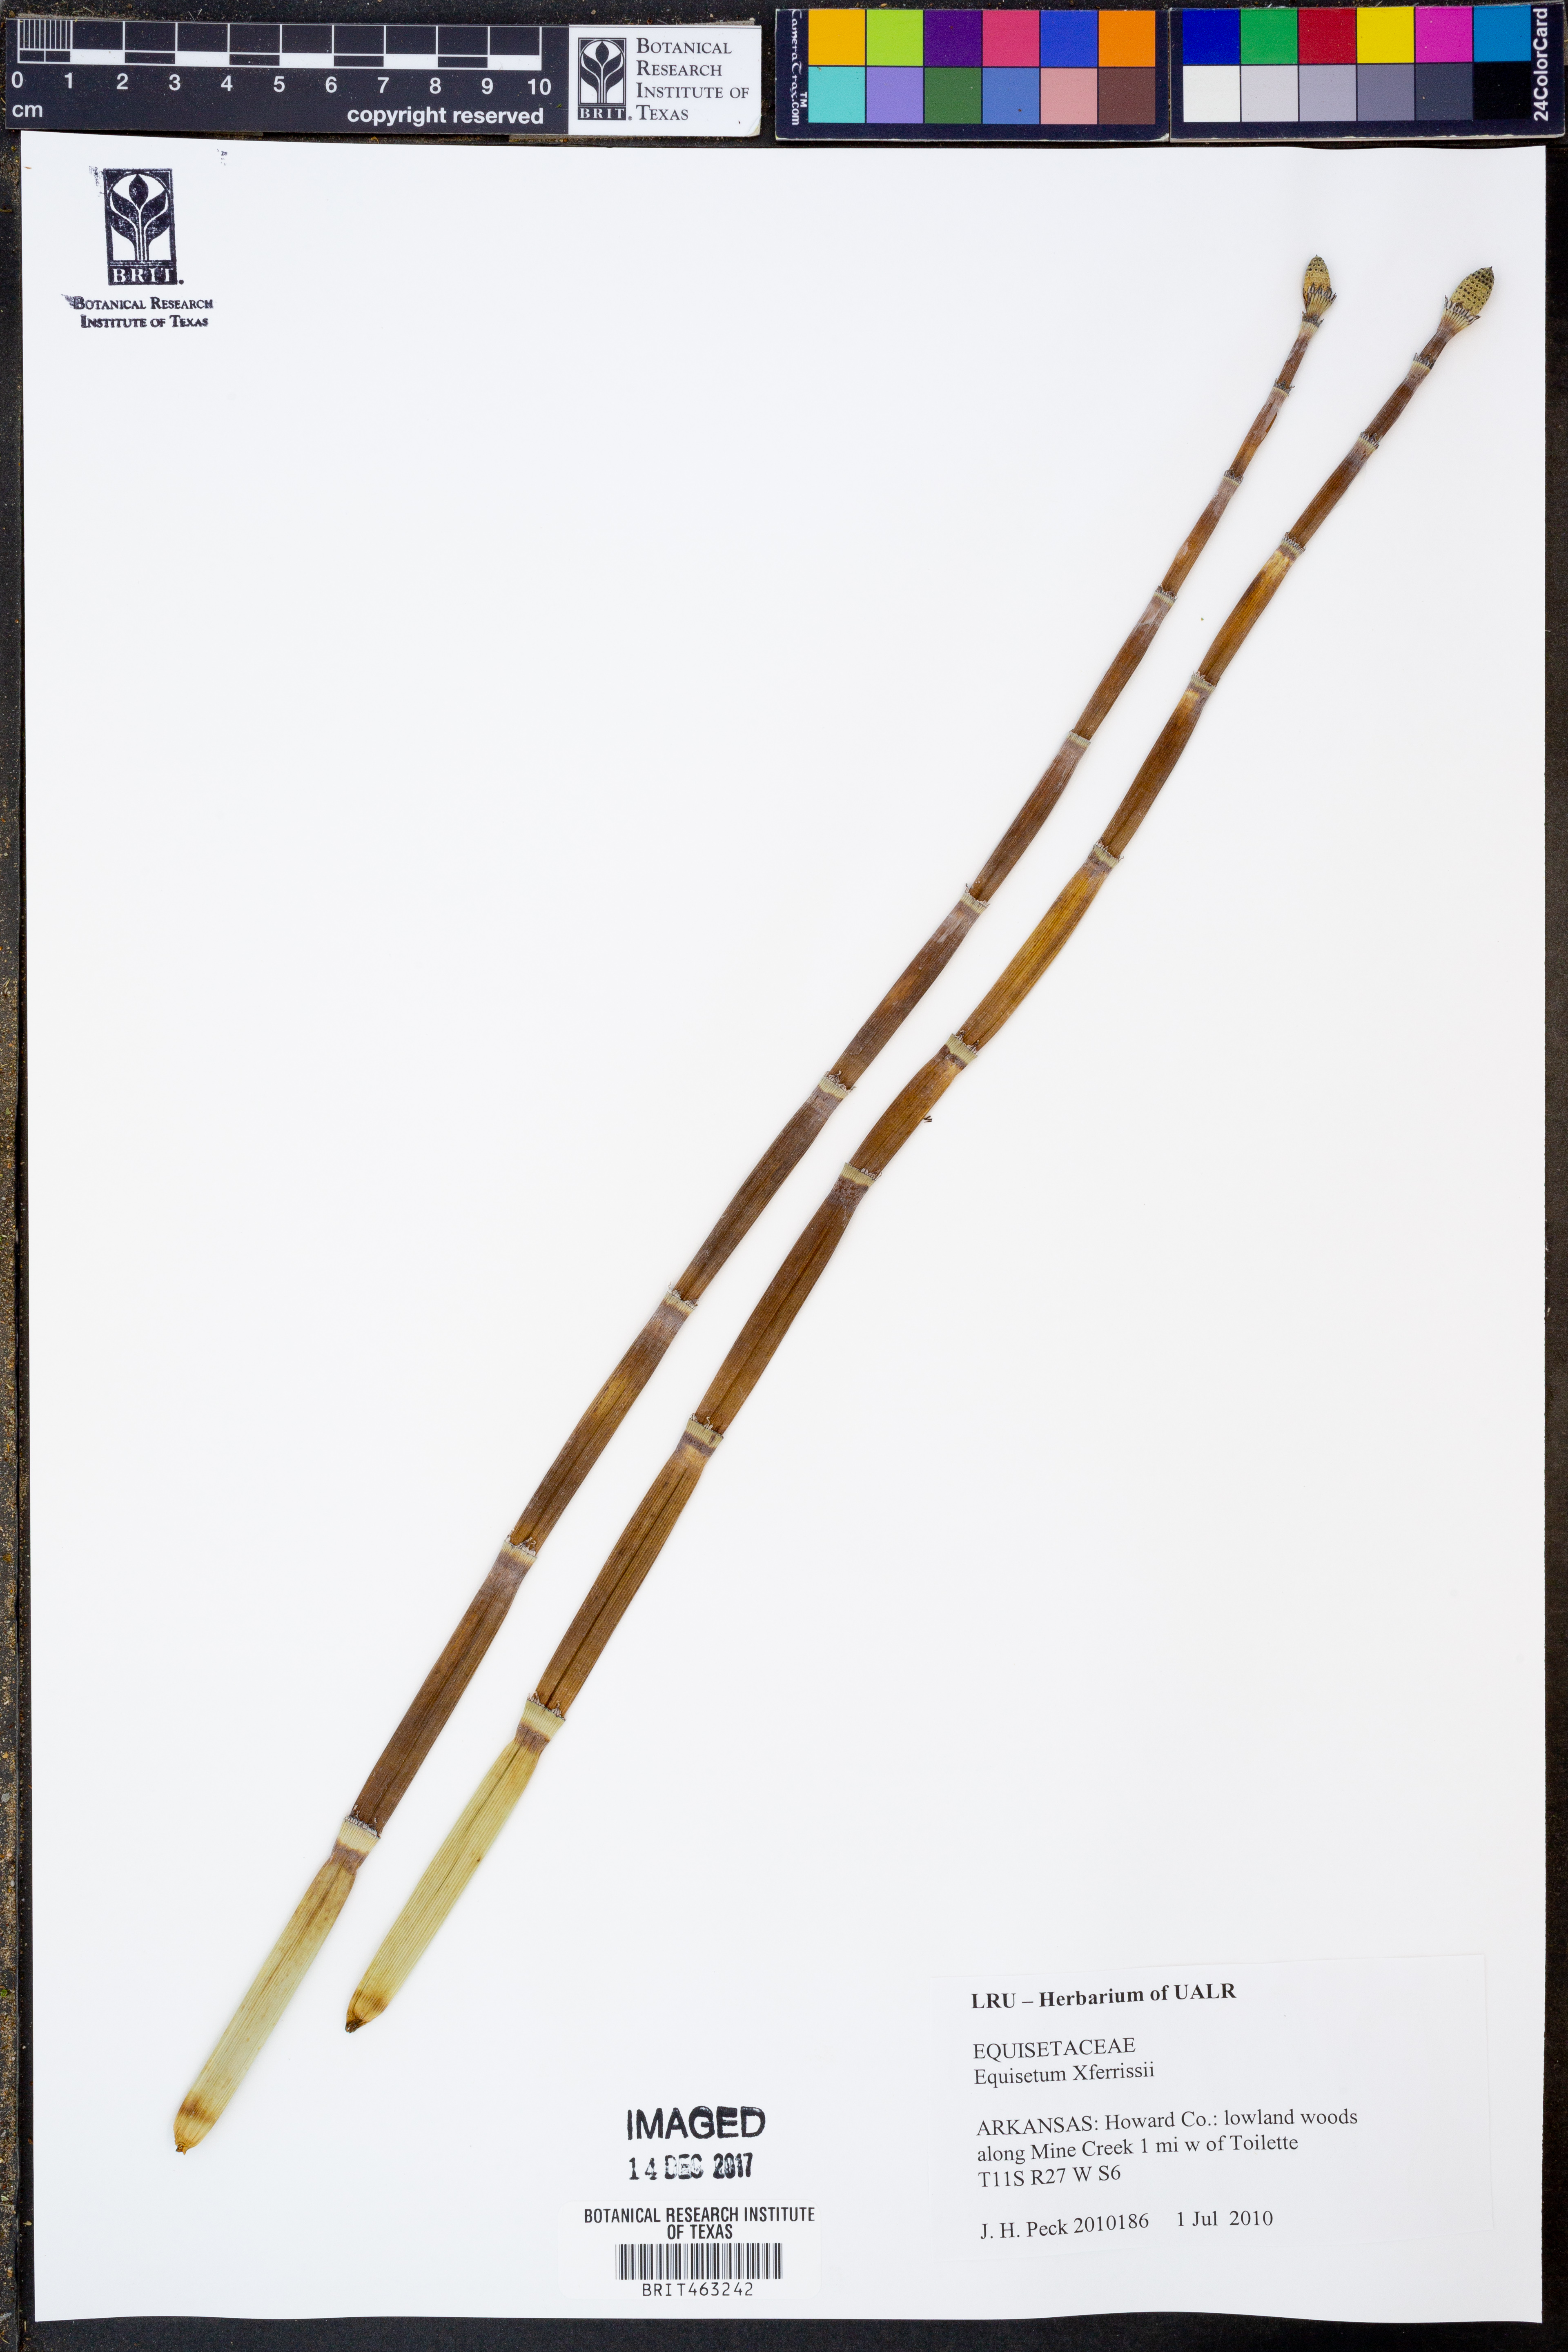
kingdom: Plantae
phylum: Tracheophyta
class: Polypodiopsida
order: Equisetales
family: Equisetaceae
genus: Equisetum
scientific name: Equisetum ferrissii
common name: Ferriss' horsetail
